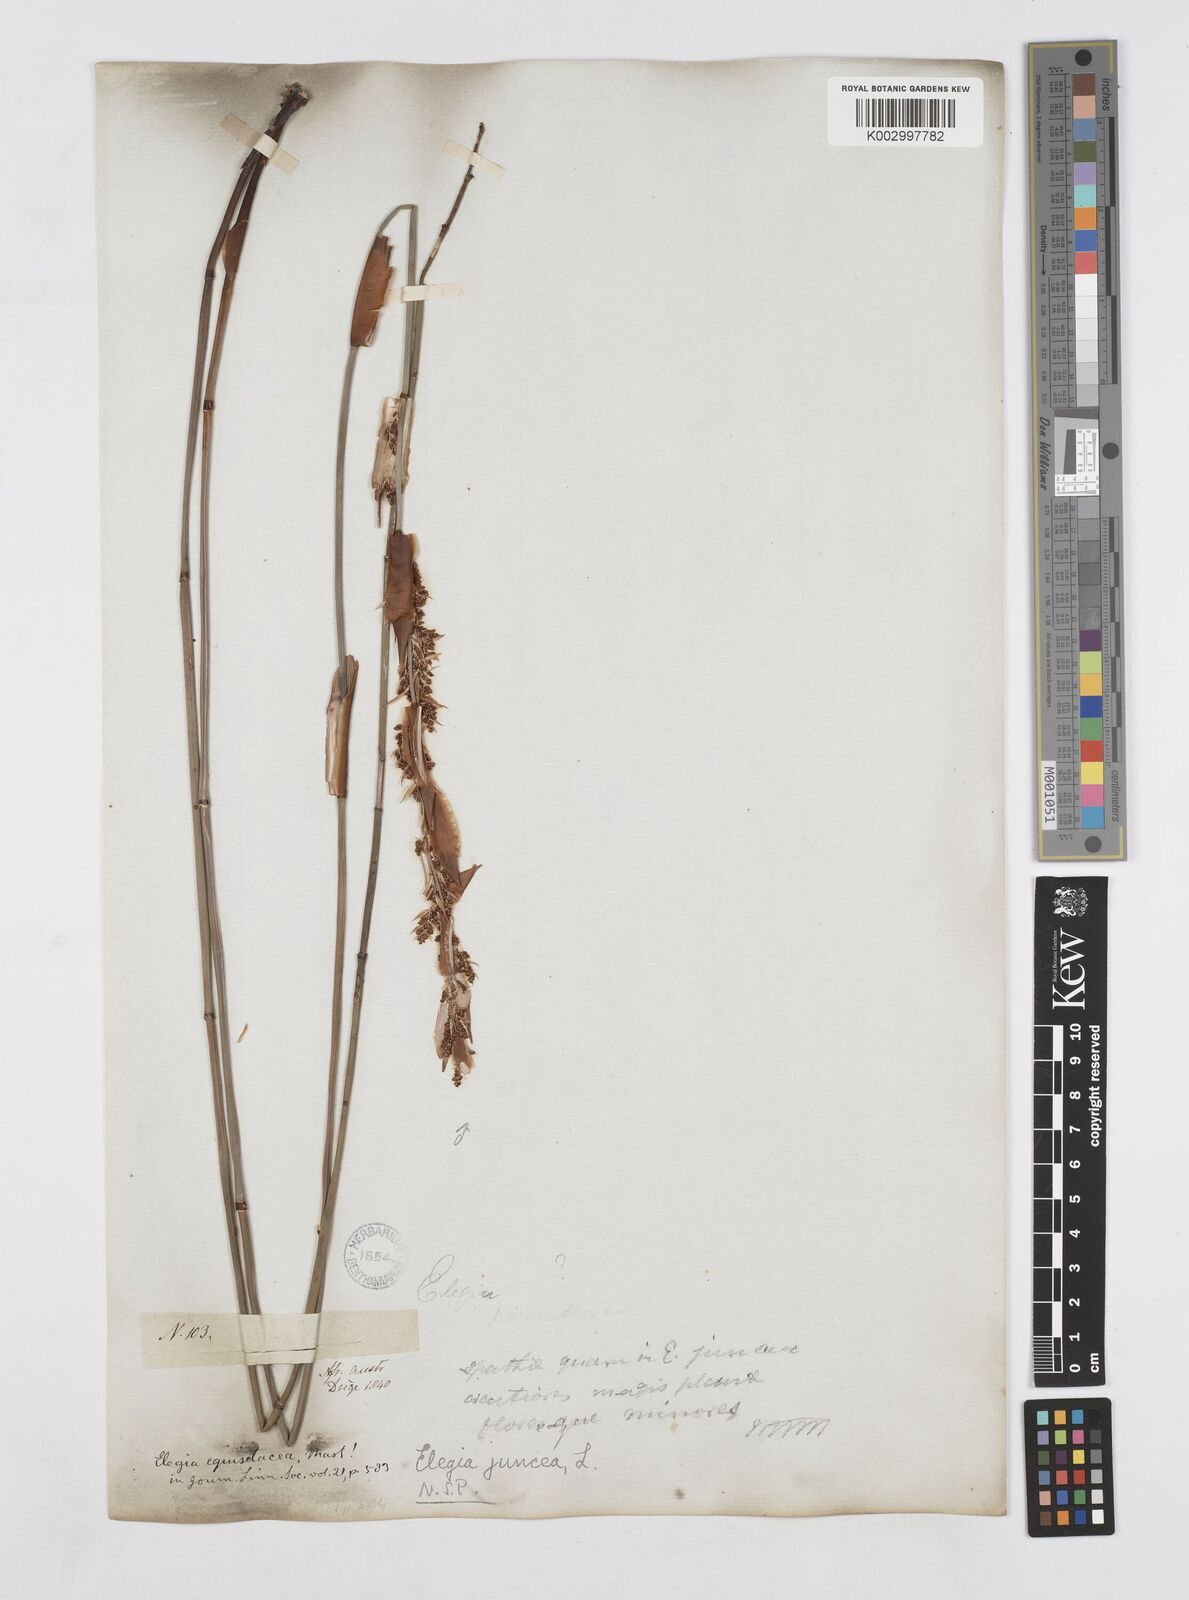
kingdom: Plantae
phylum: Tracheophyta
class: Liliopsida
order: Poales
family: Restionaceae
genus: Elegia
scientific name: Elegia juncea
